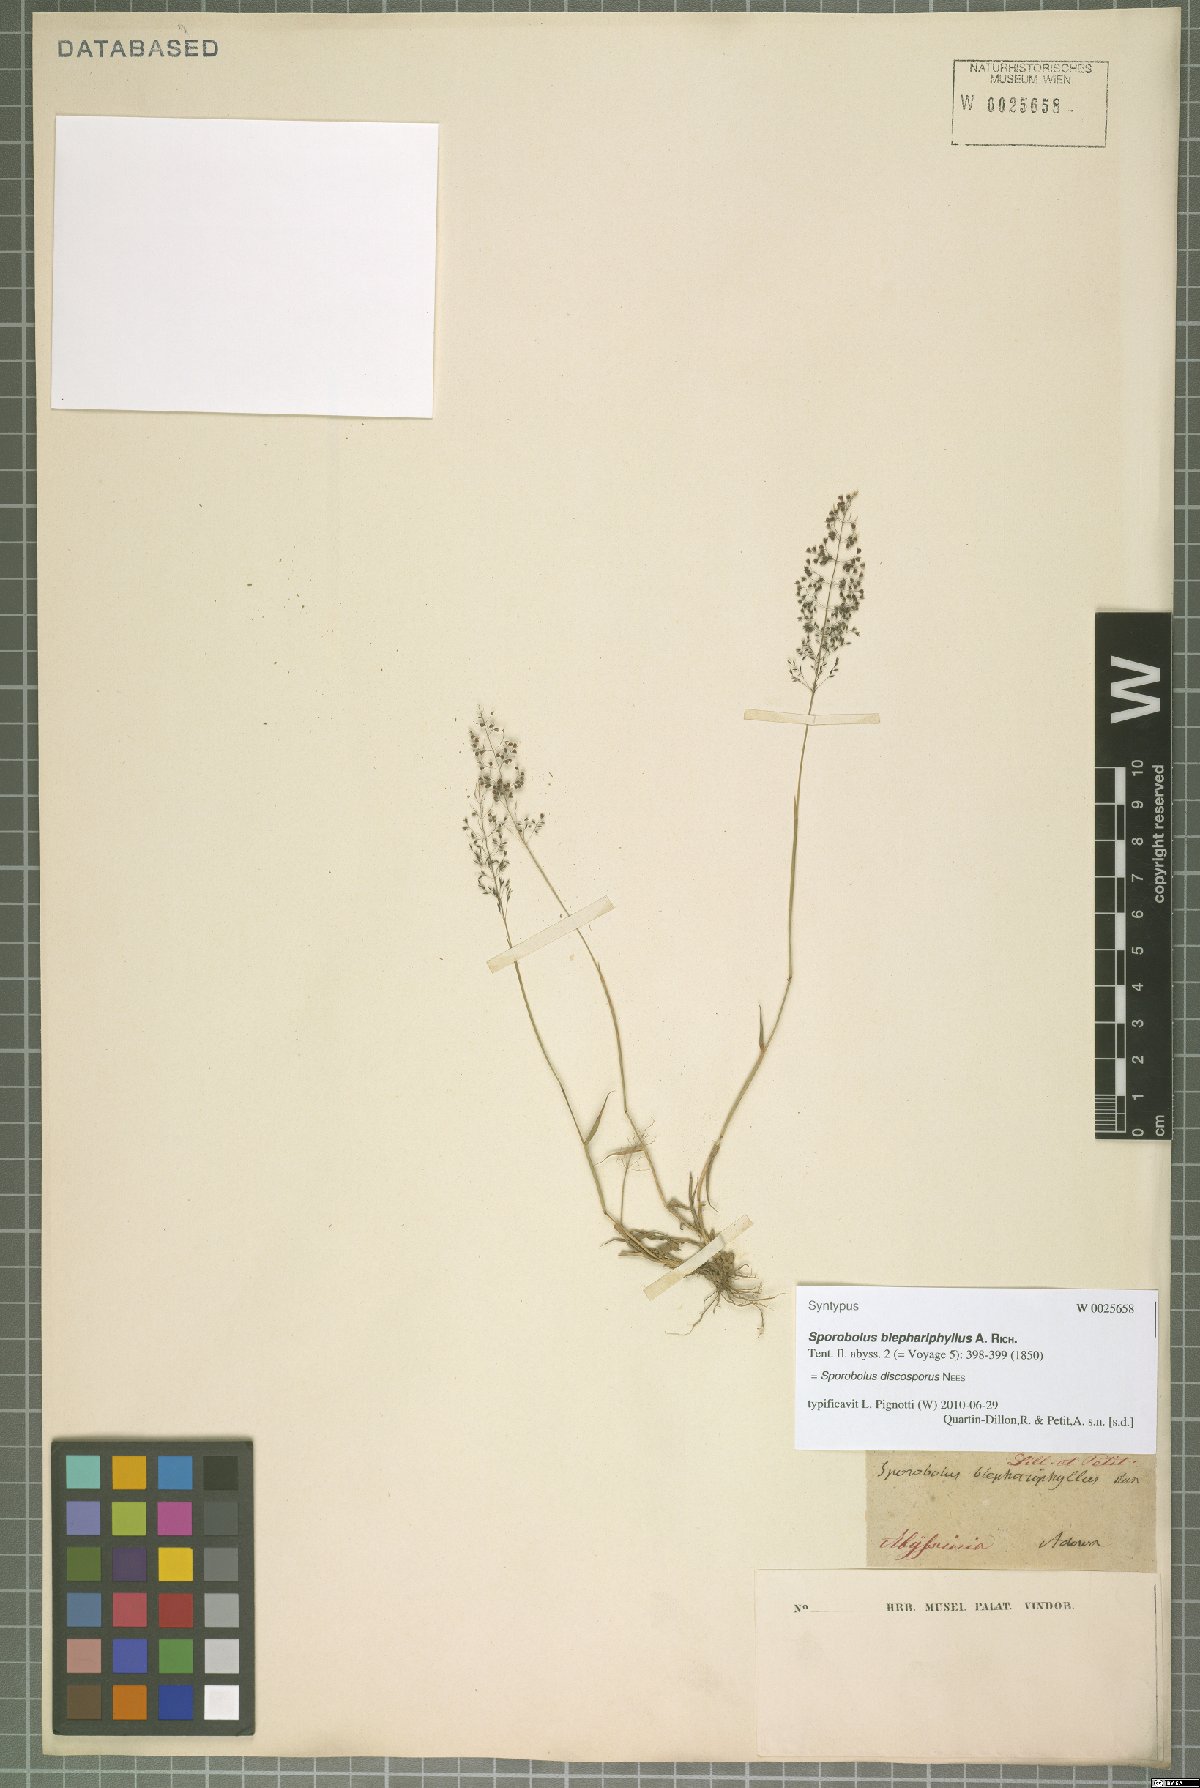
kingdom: Plantae
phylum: Tracheophyta
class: Liliopsida
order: Poales
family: Poaceae
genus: Sporobolus
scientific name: Sporobolus discosporus
